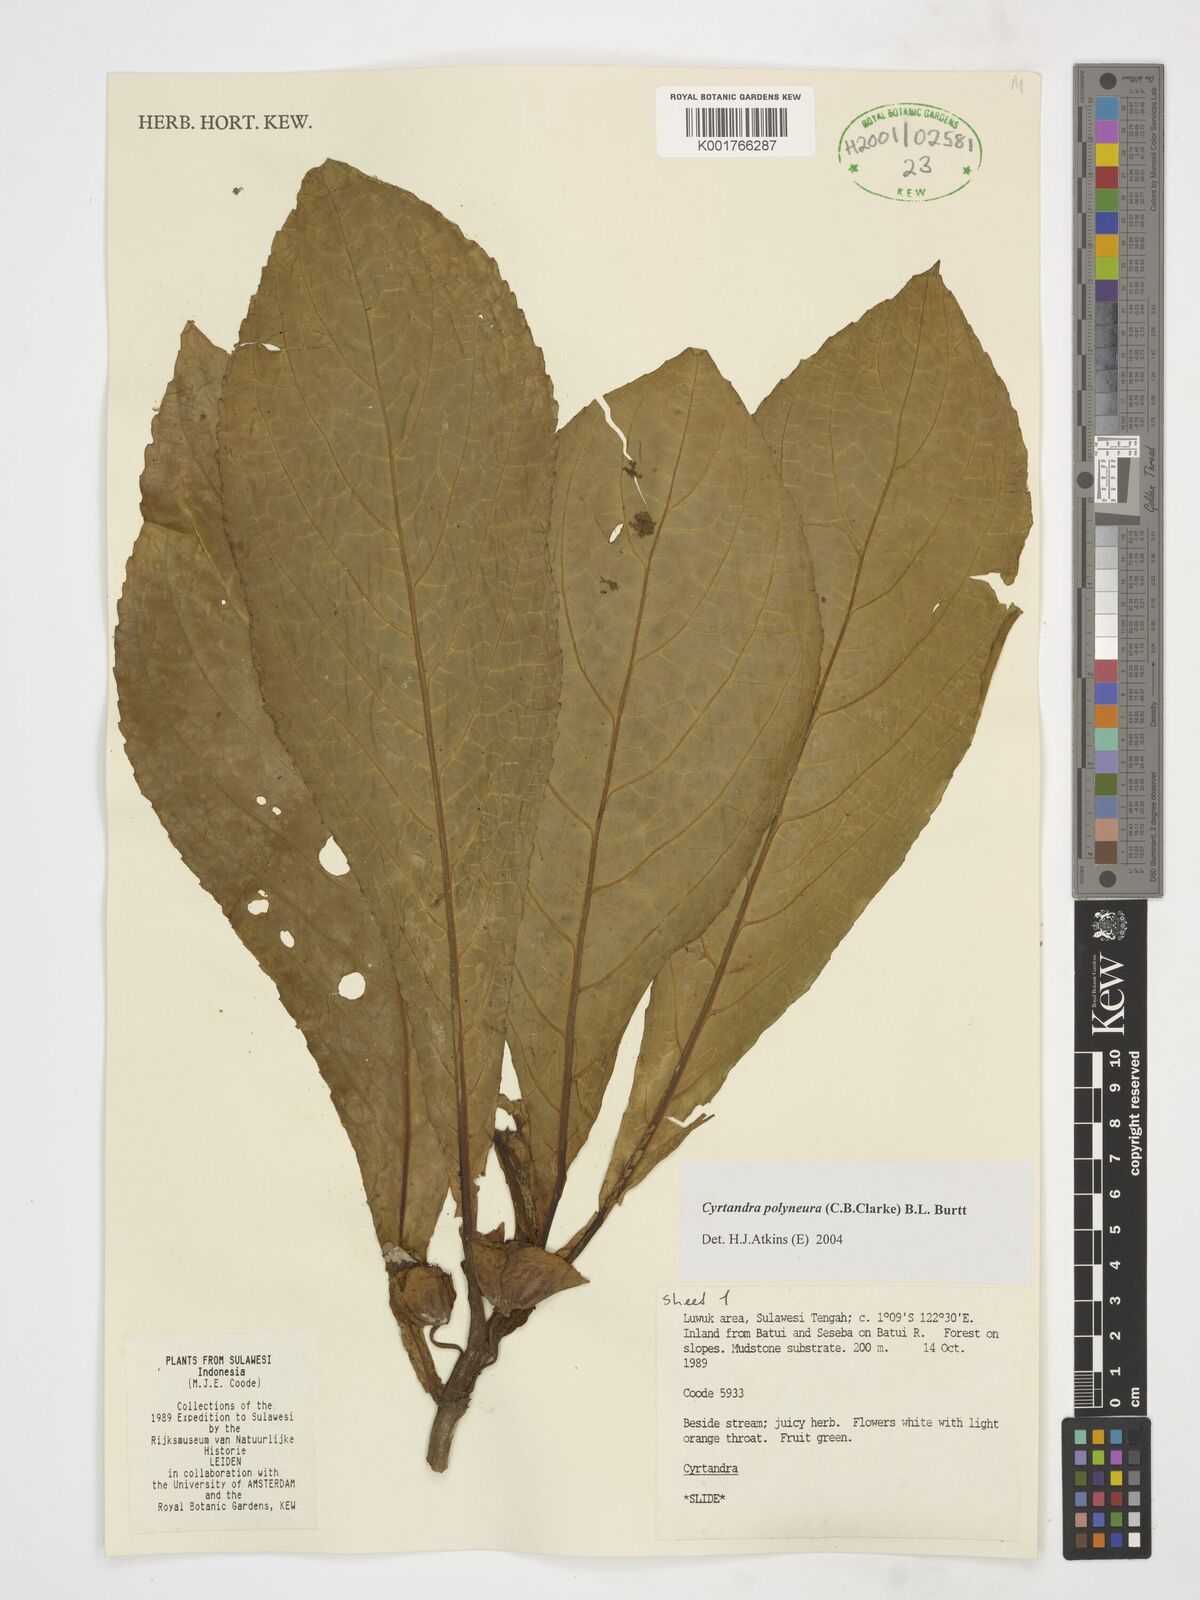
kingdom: Plantae
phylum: Tracheophyta
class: Magnoliopsida
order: Lamiales
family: Gesneriaceae
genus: Cyrtandra
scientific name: Cyrtandra polyneura
